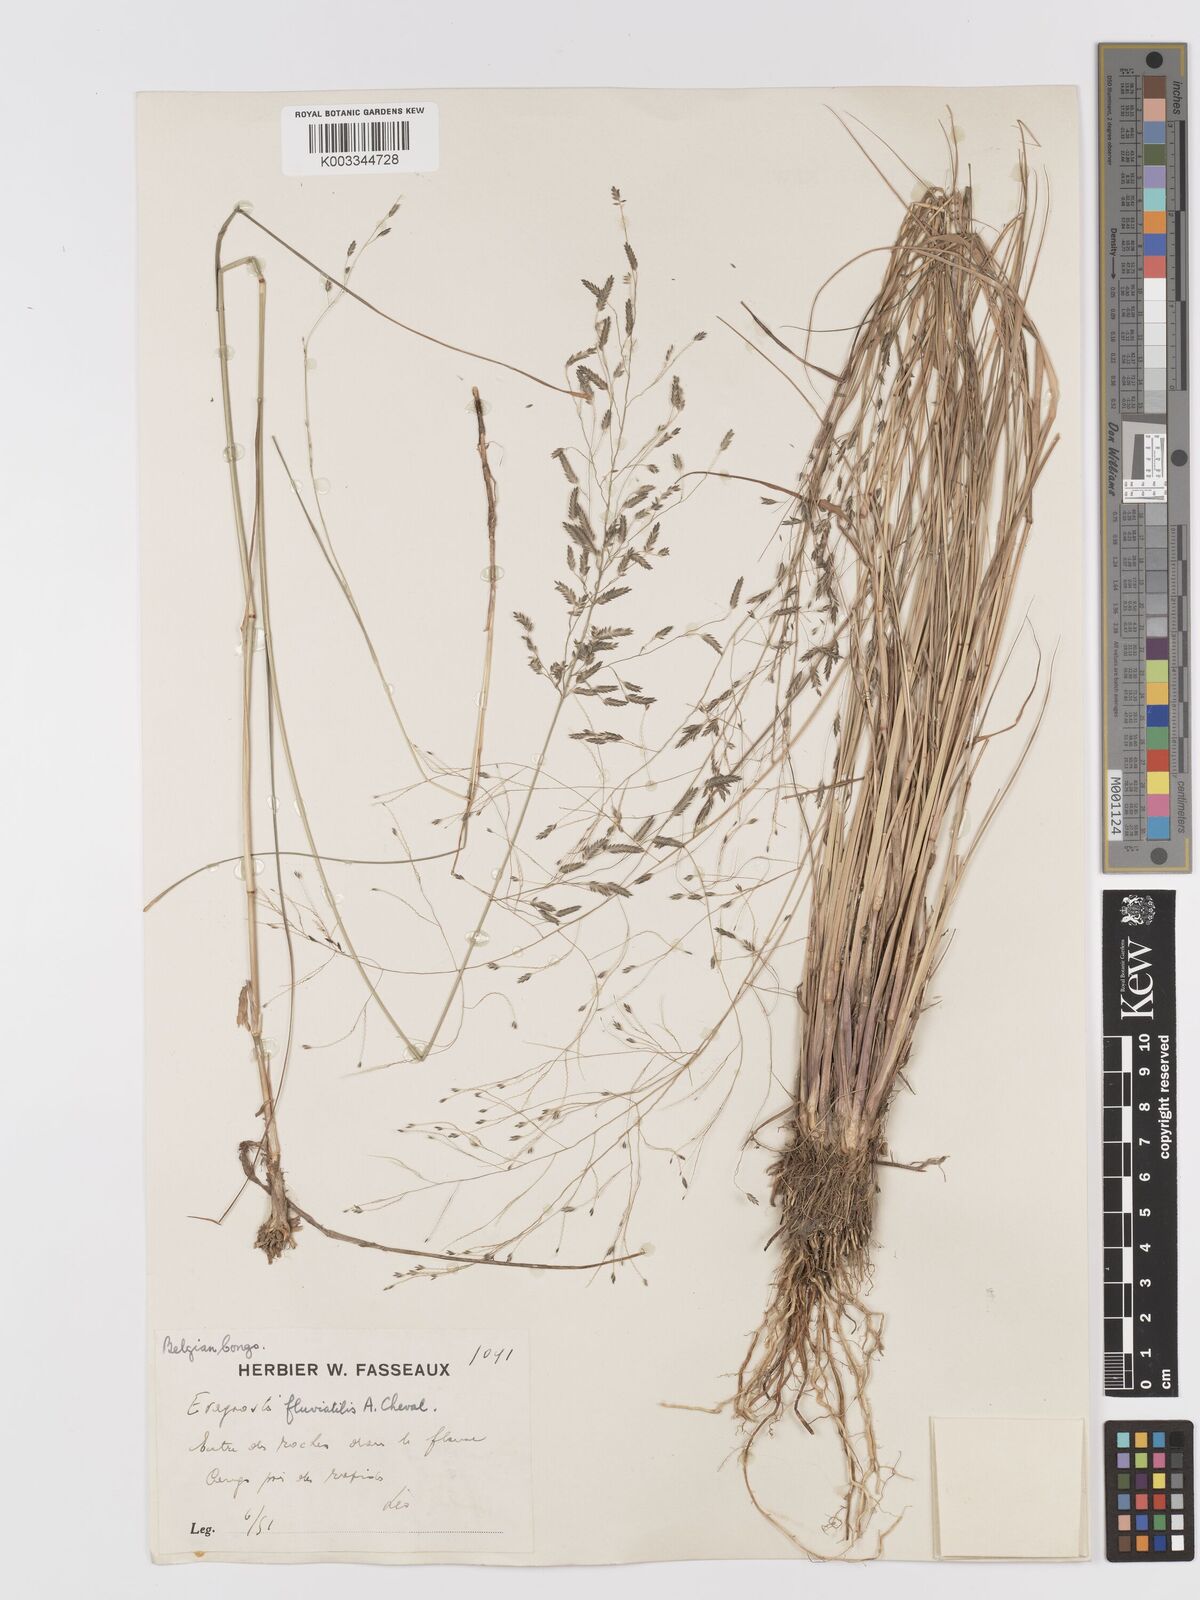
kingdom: Plantae
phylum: Tracheophyta
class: Liliopsida
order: Poales
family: Poaceae
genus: Eragrostis
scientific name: Eragrostis barteri
